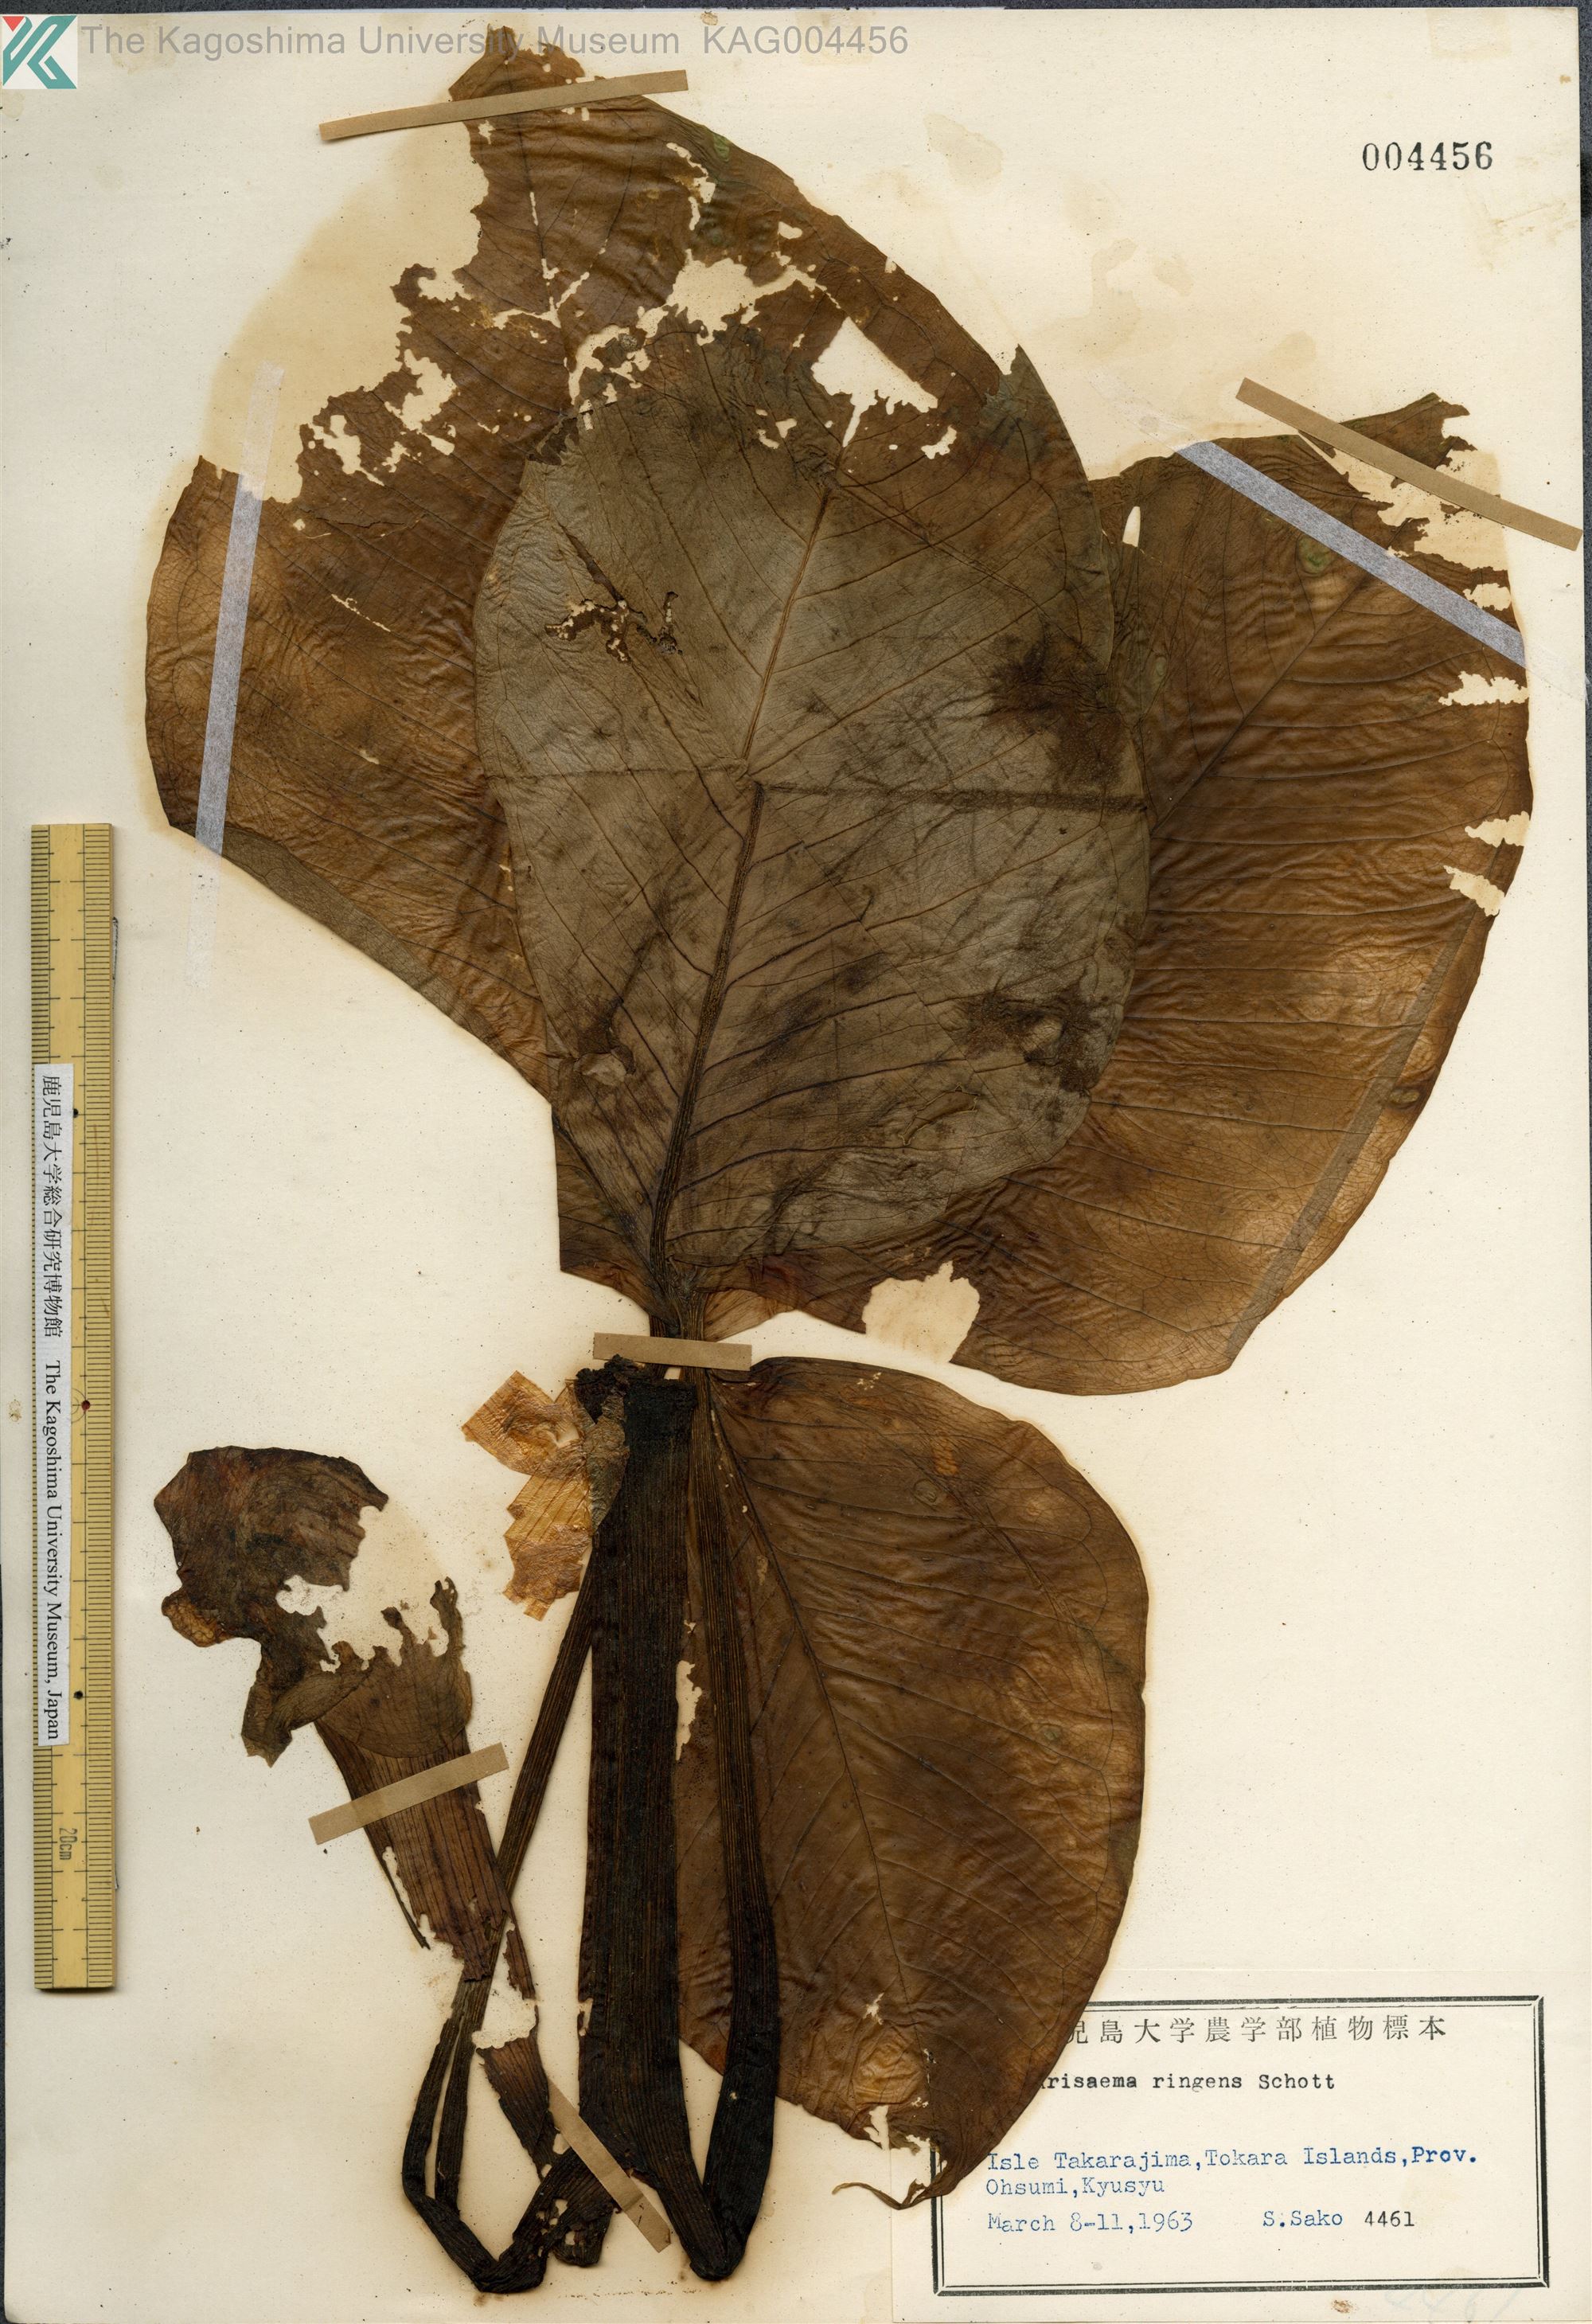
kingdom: Plantae
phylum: Tracheophyta
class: Liliopsida
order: Alismatales
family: Araceae
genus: Arisaema
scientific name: Arisaema ringens
